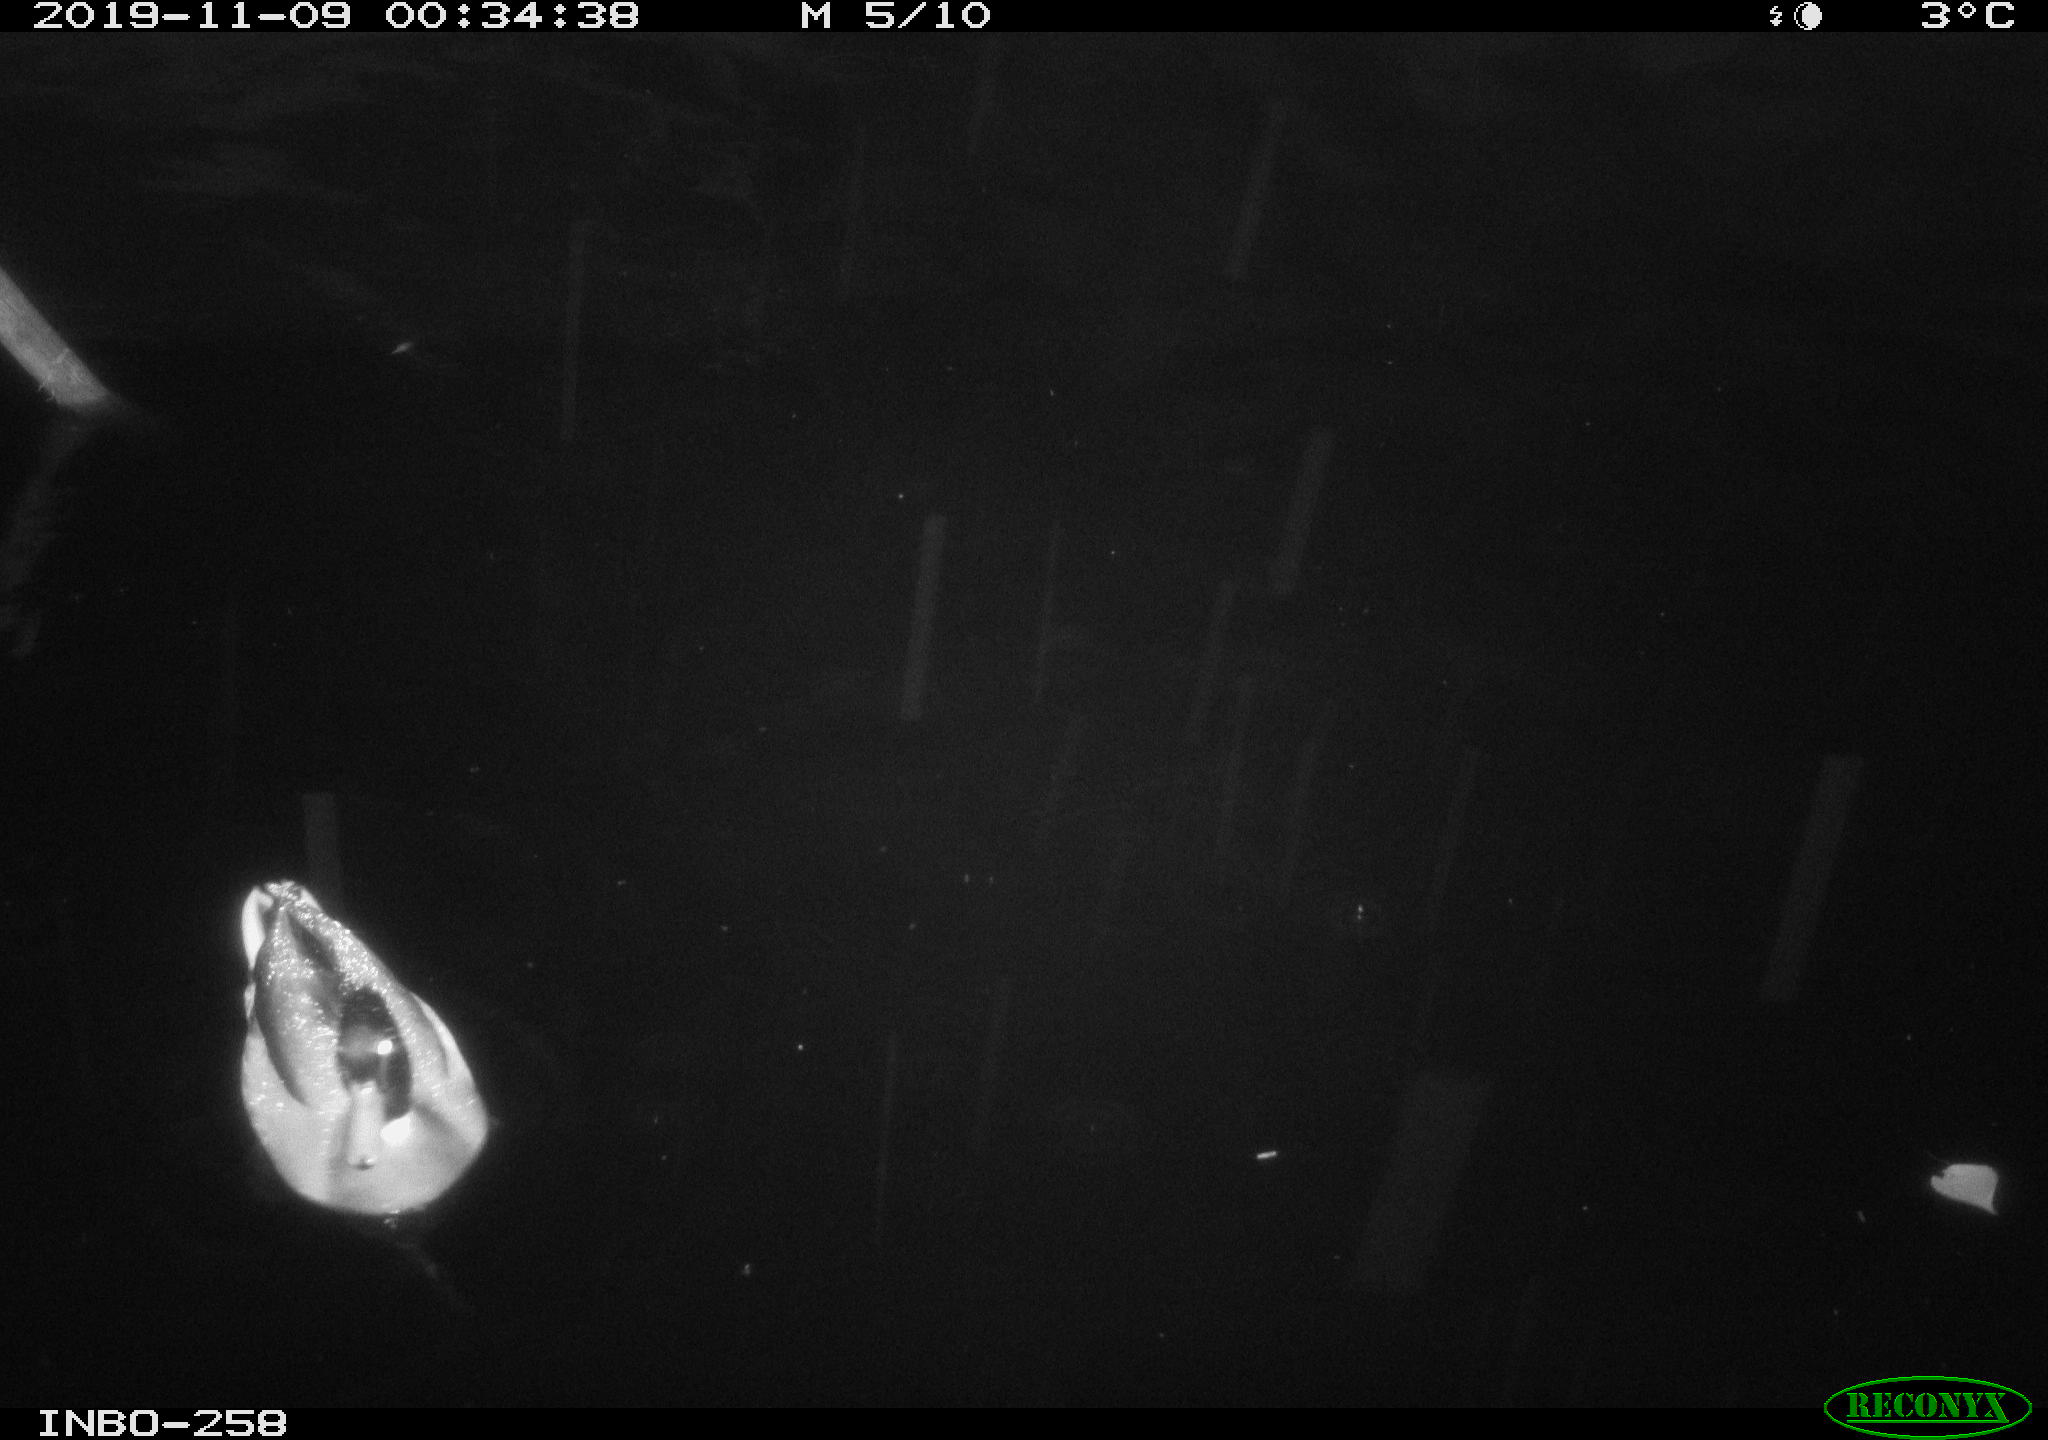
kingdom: Animalia
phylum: Chordata
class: Aves
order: Anseriformes
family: Anatidae
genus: Anas
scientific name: Anas platyrhynchos
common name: Mallard
